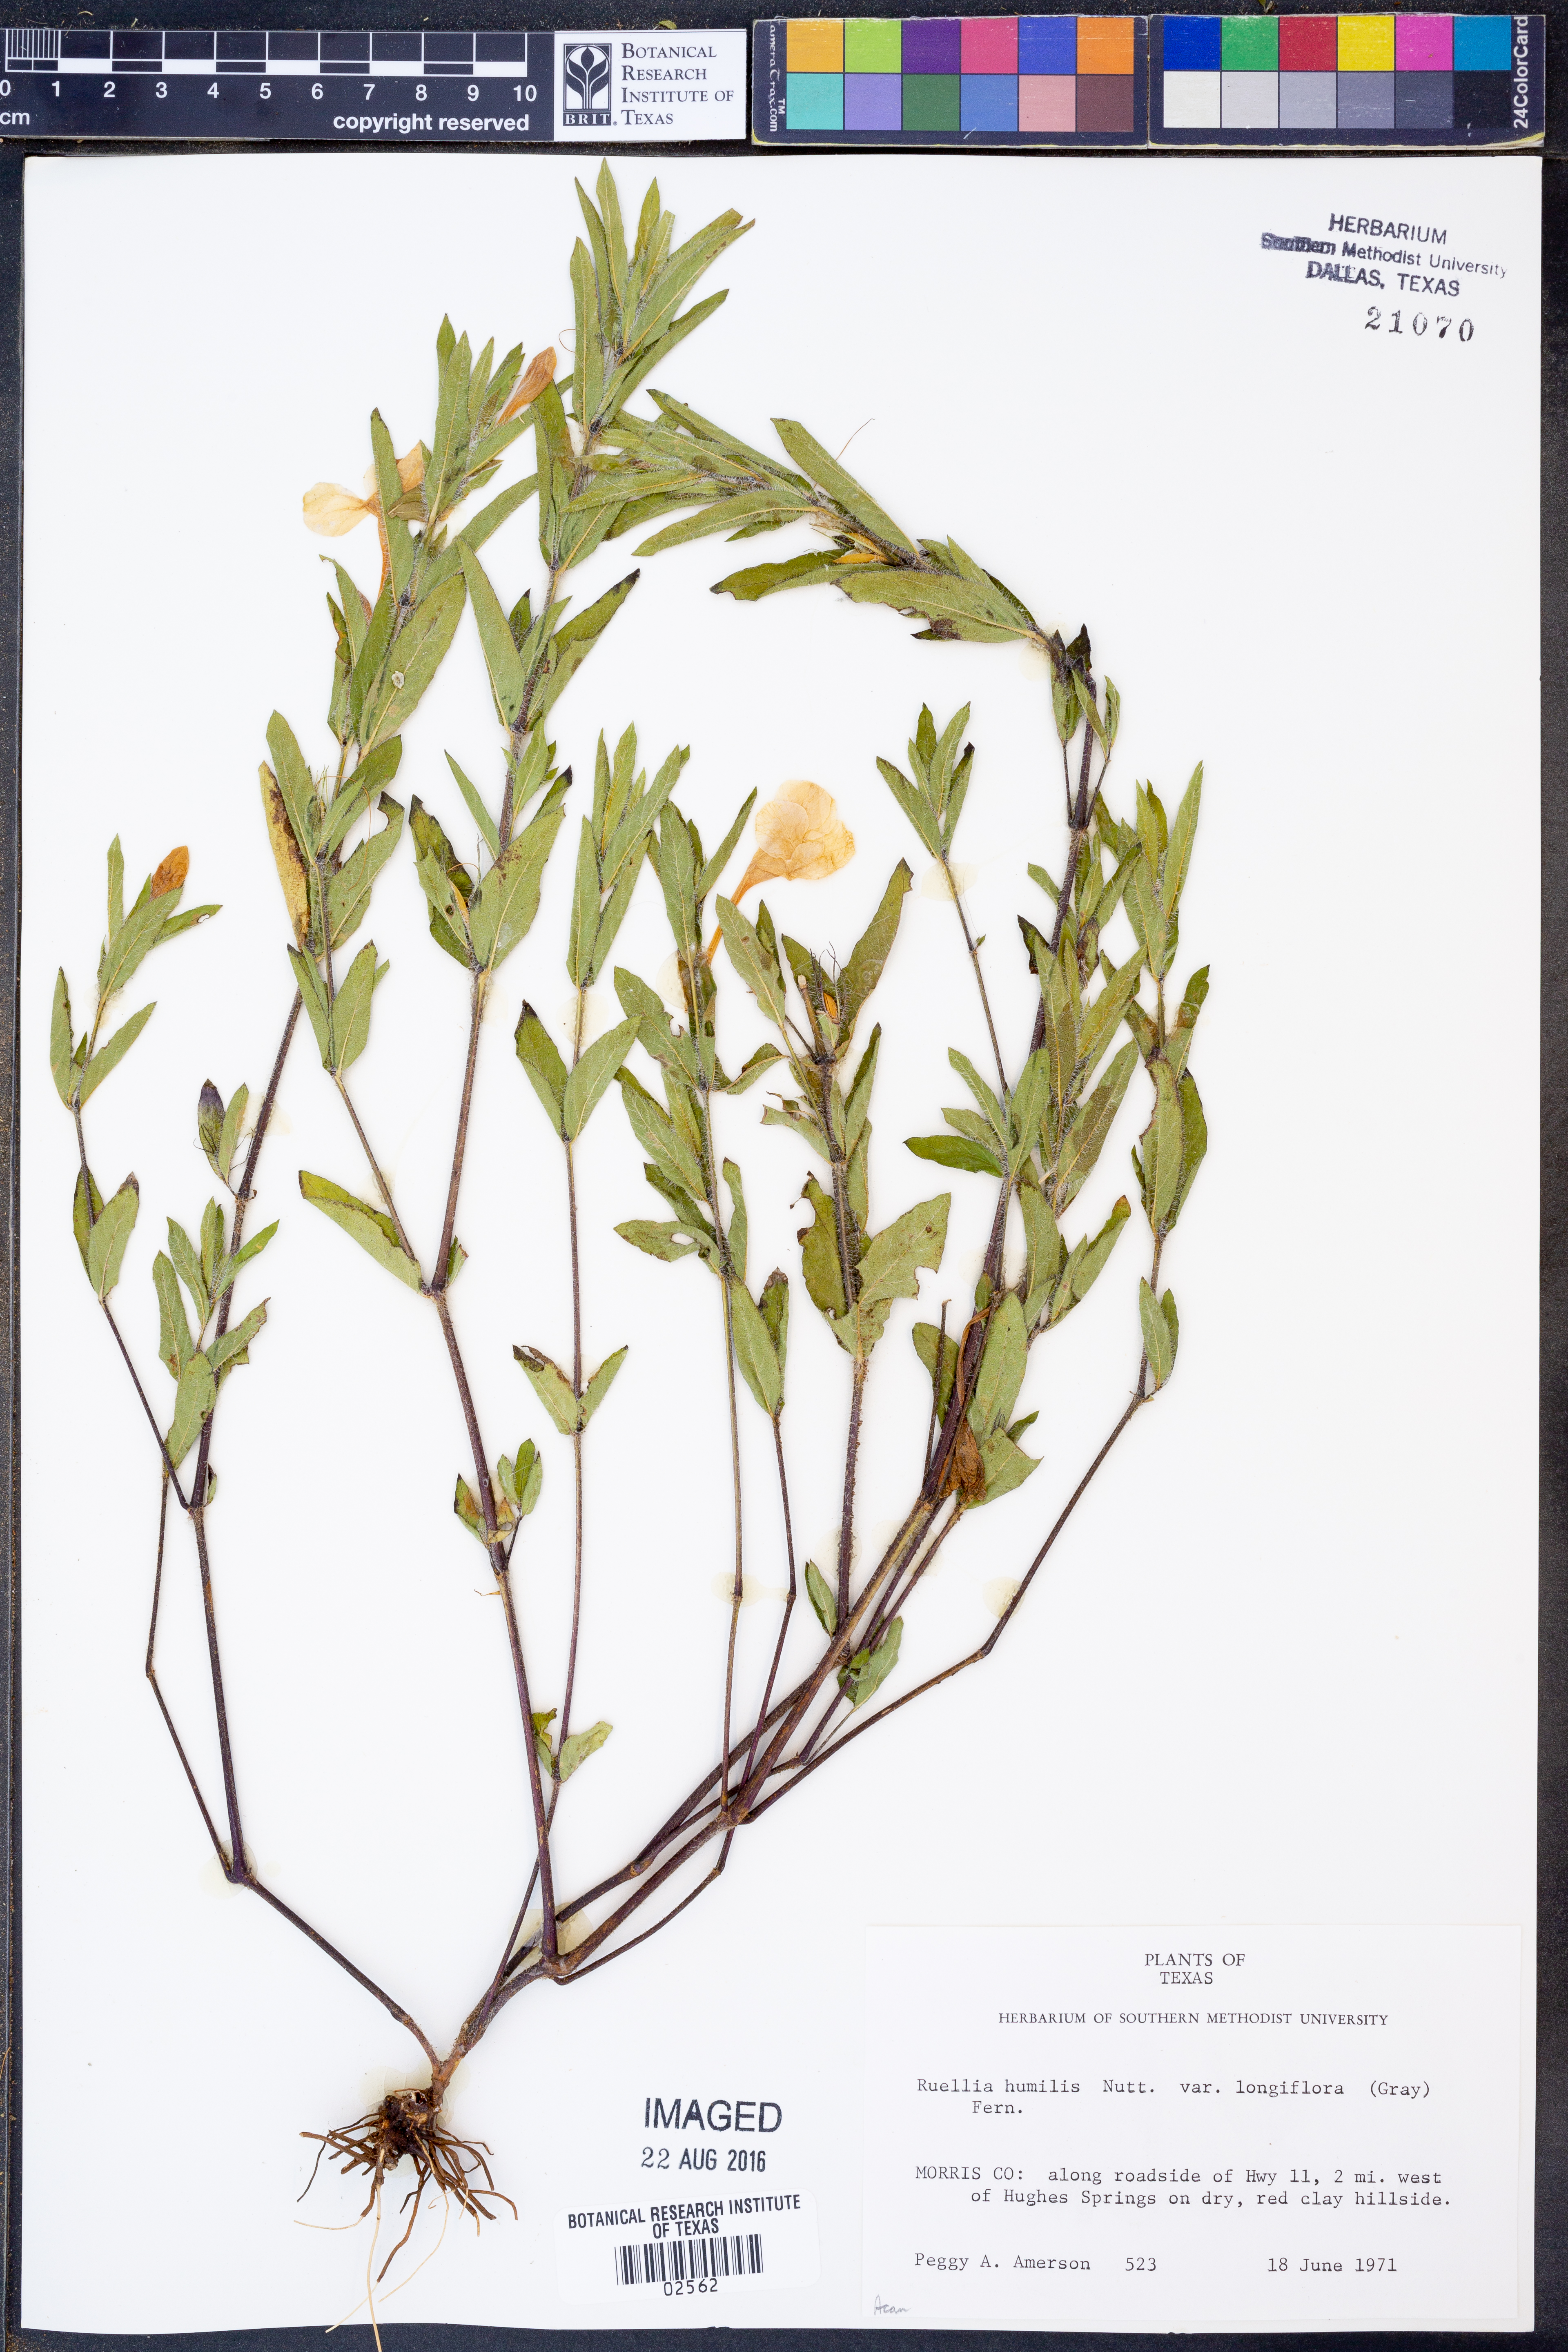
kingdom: Plantae
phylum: Tracheophyta
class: Magnoliopsida
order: Lamiales
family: Acanthaceae
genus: Ruellia
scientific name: Ruellia humilis
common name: Fringe-leaf ruellia
